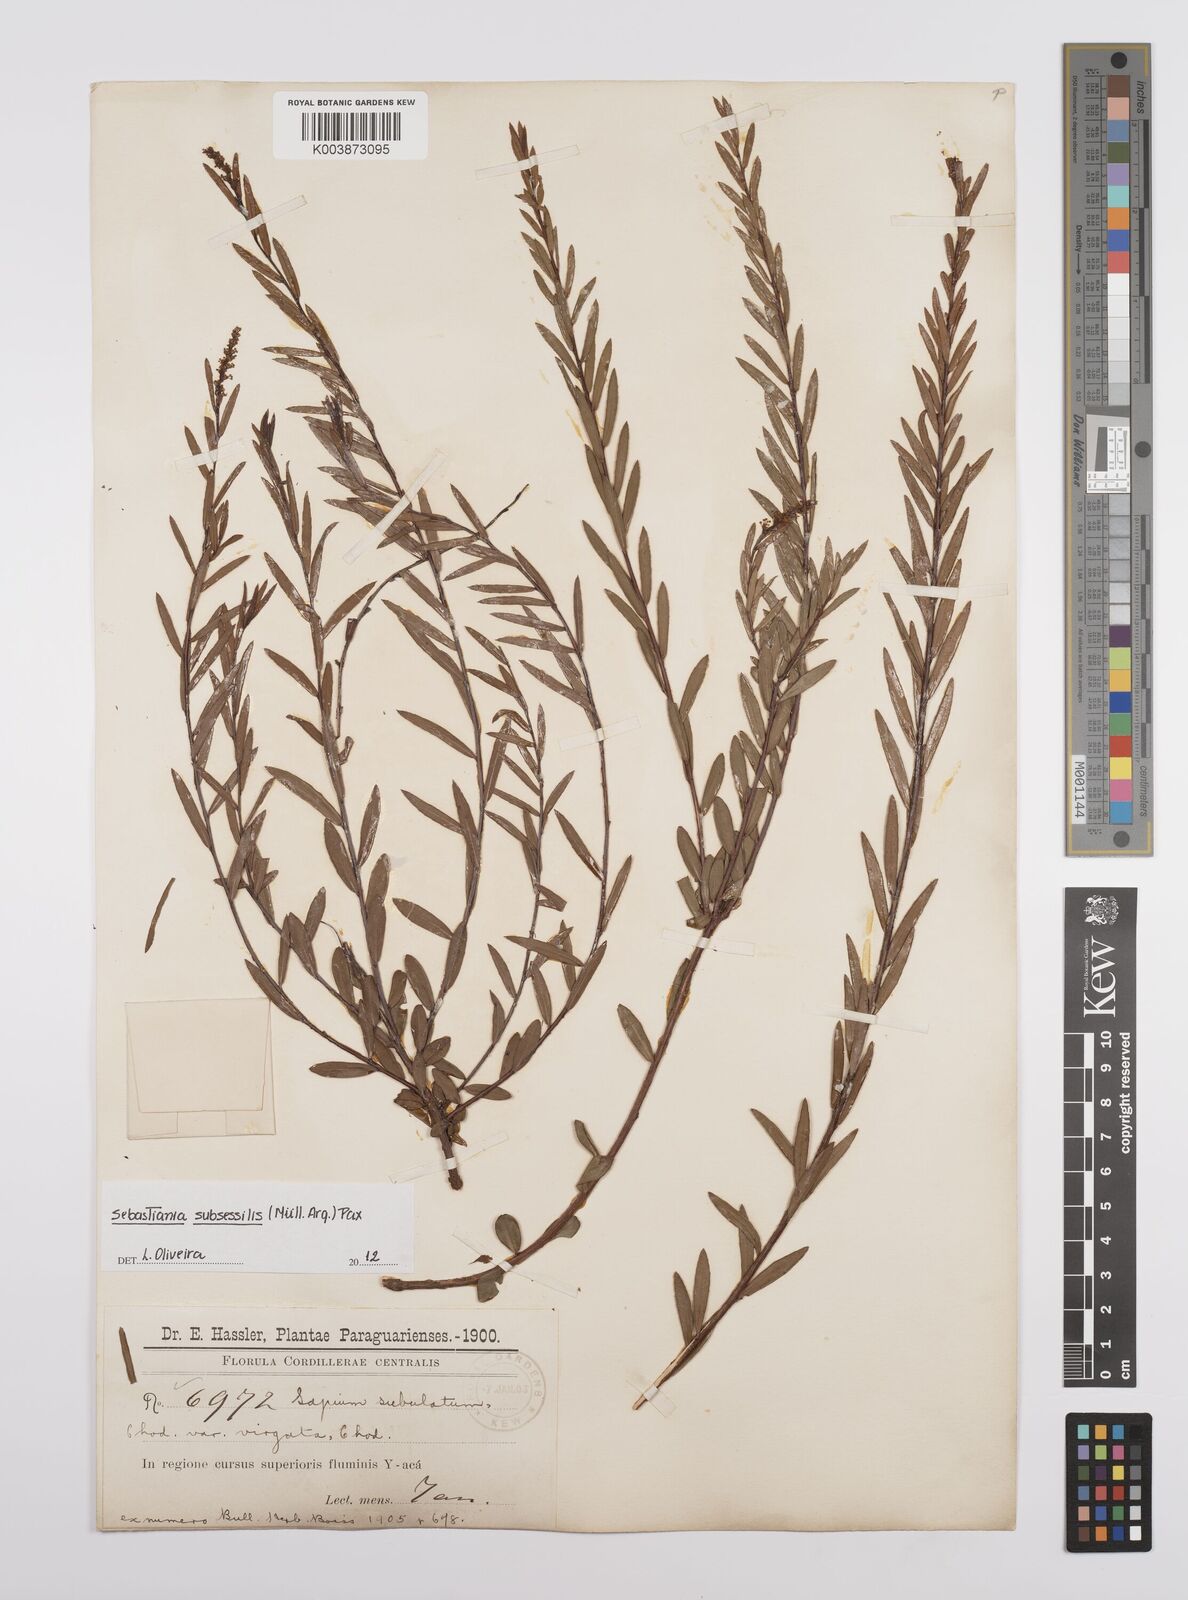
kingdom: Plantae
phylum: Tracheophyta
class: Magnoliopsida
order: Malpighiales
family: Euphorbiaceae
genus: Sebastiania
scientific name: Sebastiania subsessilis
